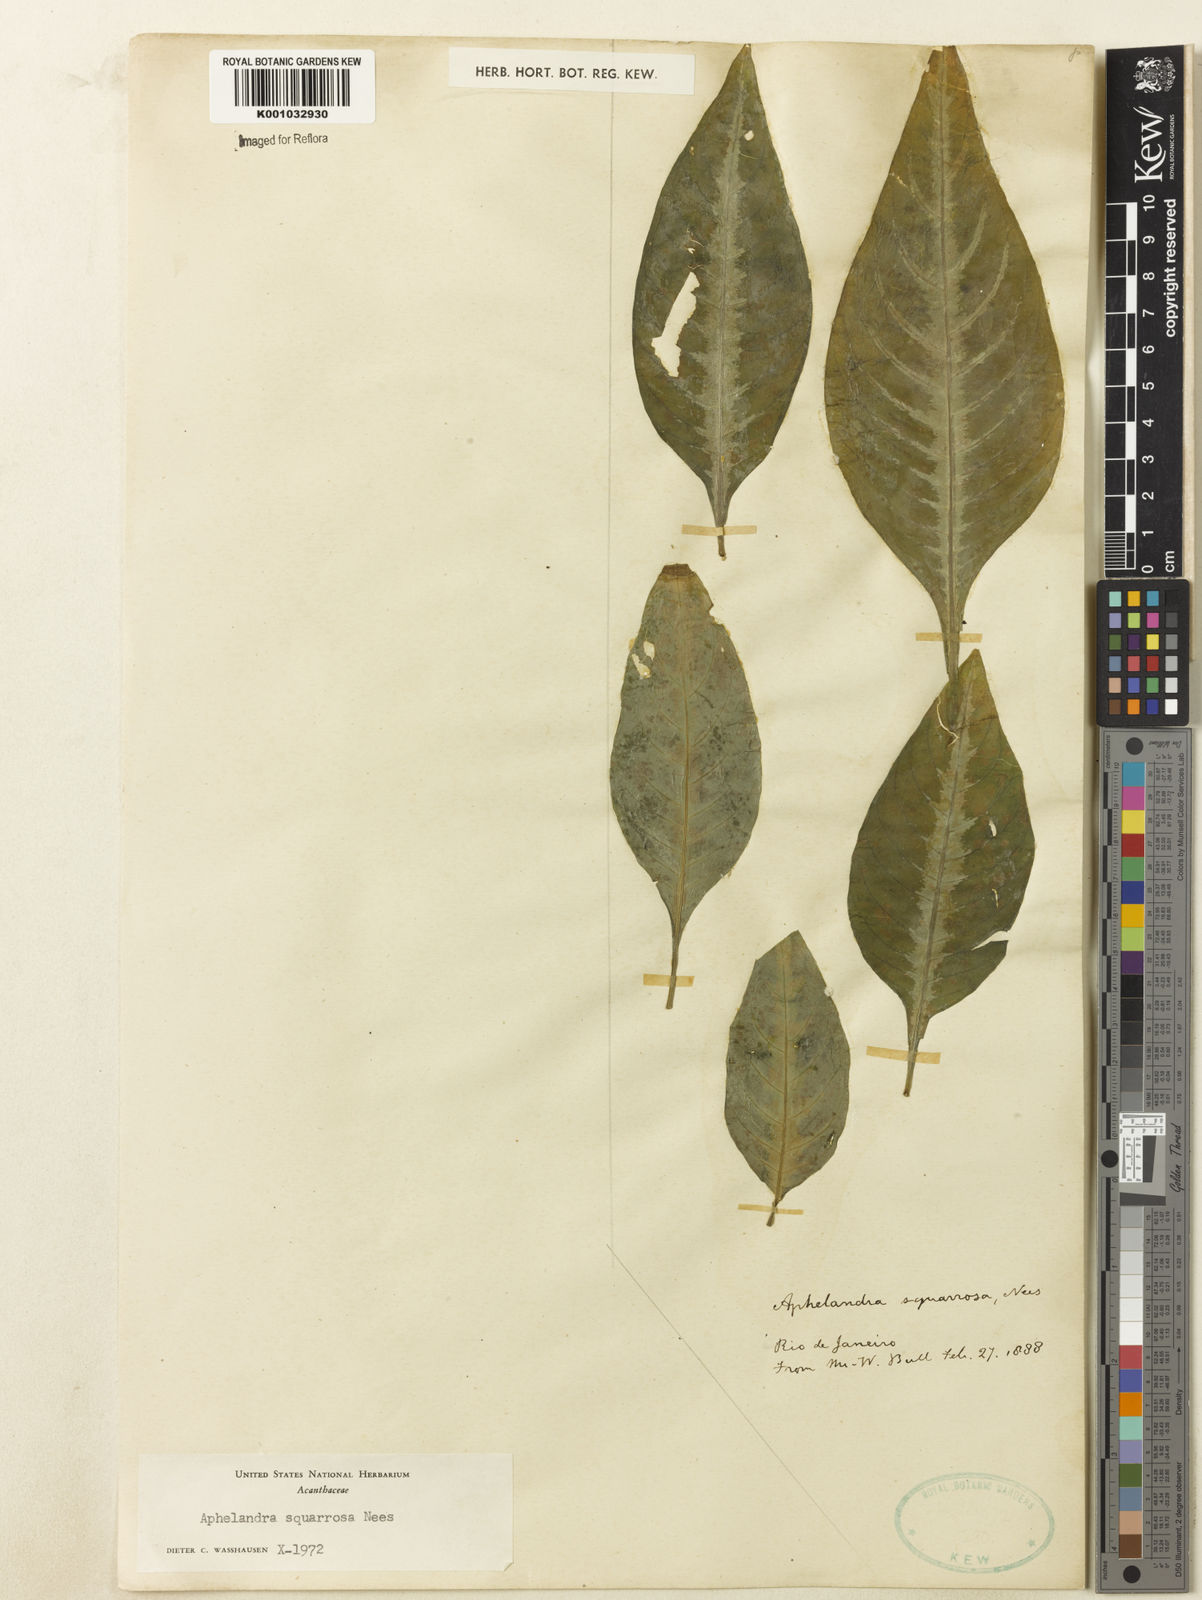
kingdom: Plantae
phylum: Tracheophyta
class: Magnoliopsida
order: Lamiales
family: Acanthaceae
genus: Aphelandra
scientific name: Aphelandra squarrosa
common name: Saffron spike
